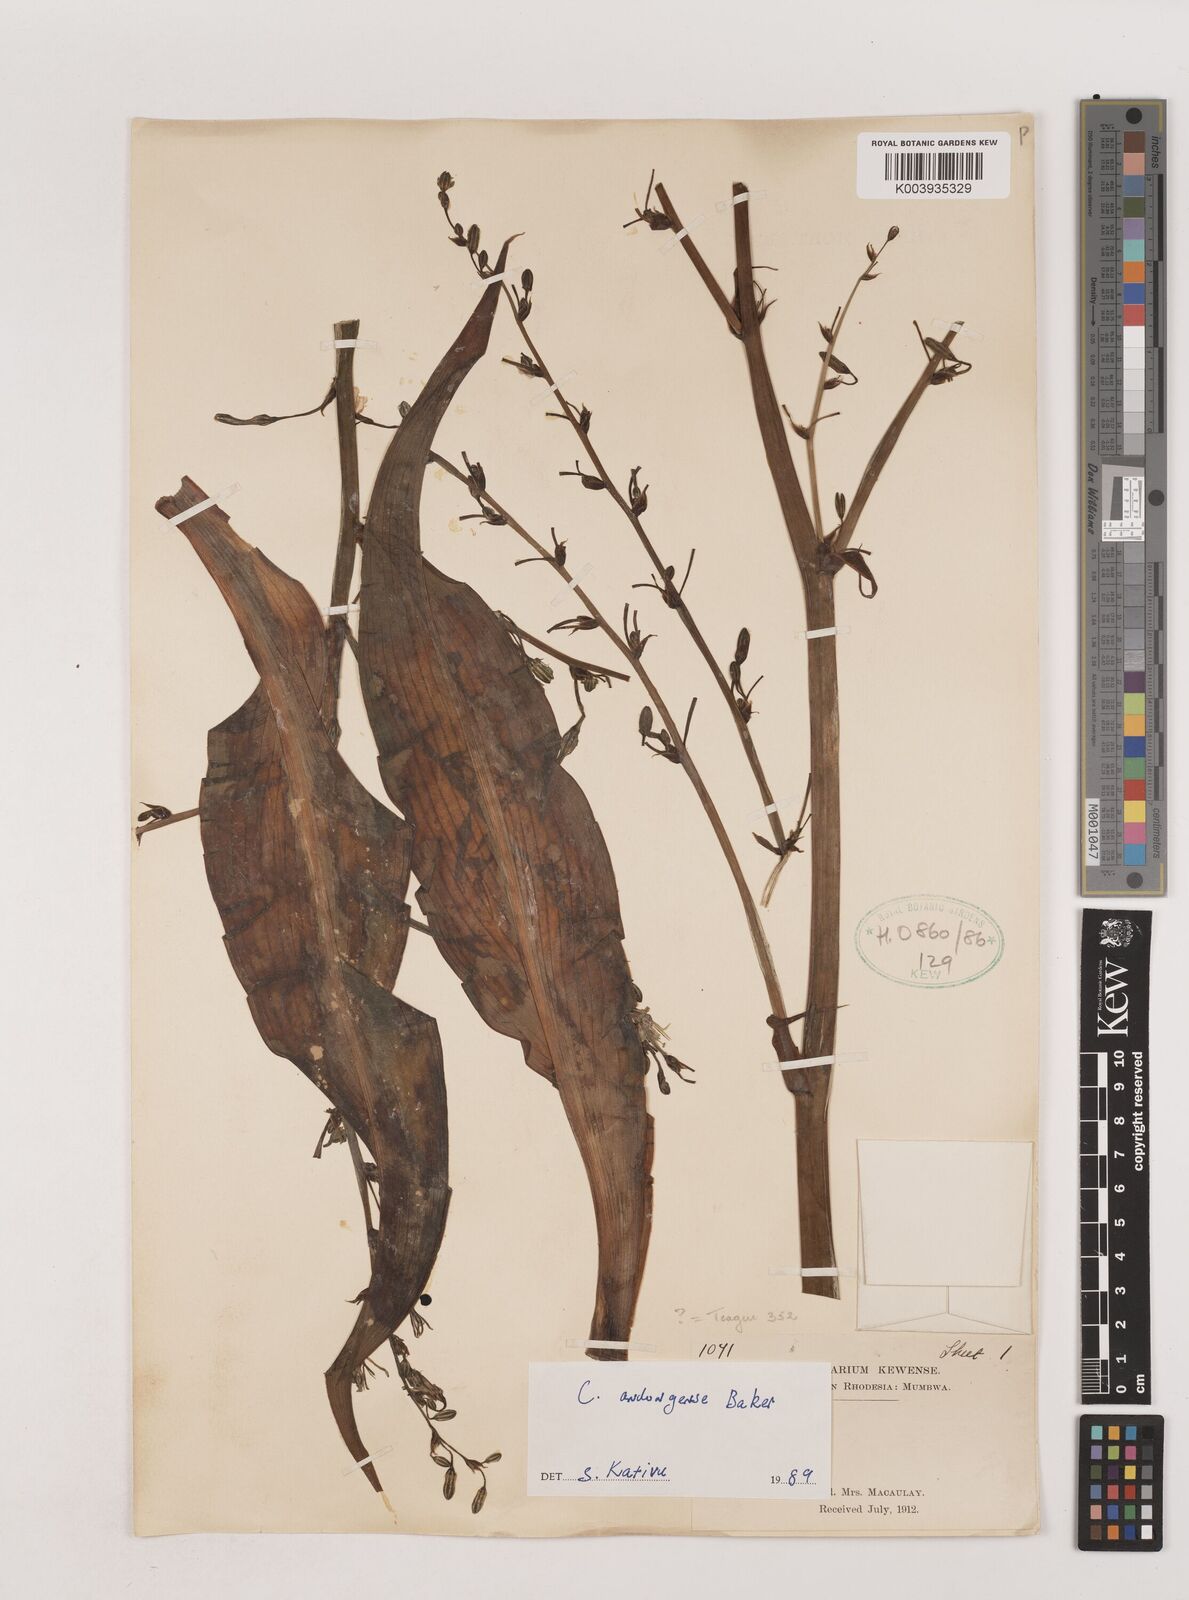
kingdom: Plantae
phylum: Tracheophyta
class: Liliopsida
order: Asparagales
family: Asparagaceae
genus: Chlorophytum
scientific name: Chlorophytum andongense
